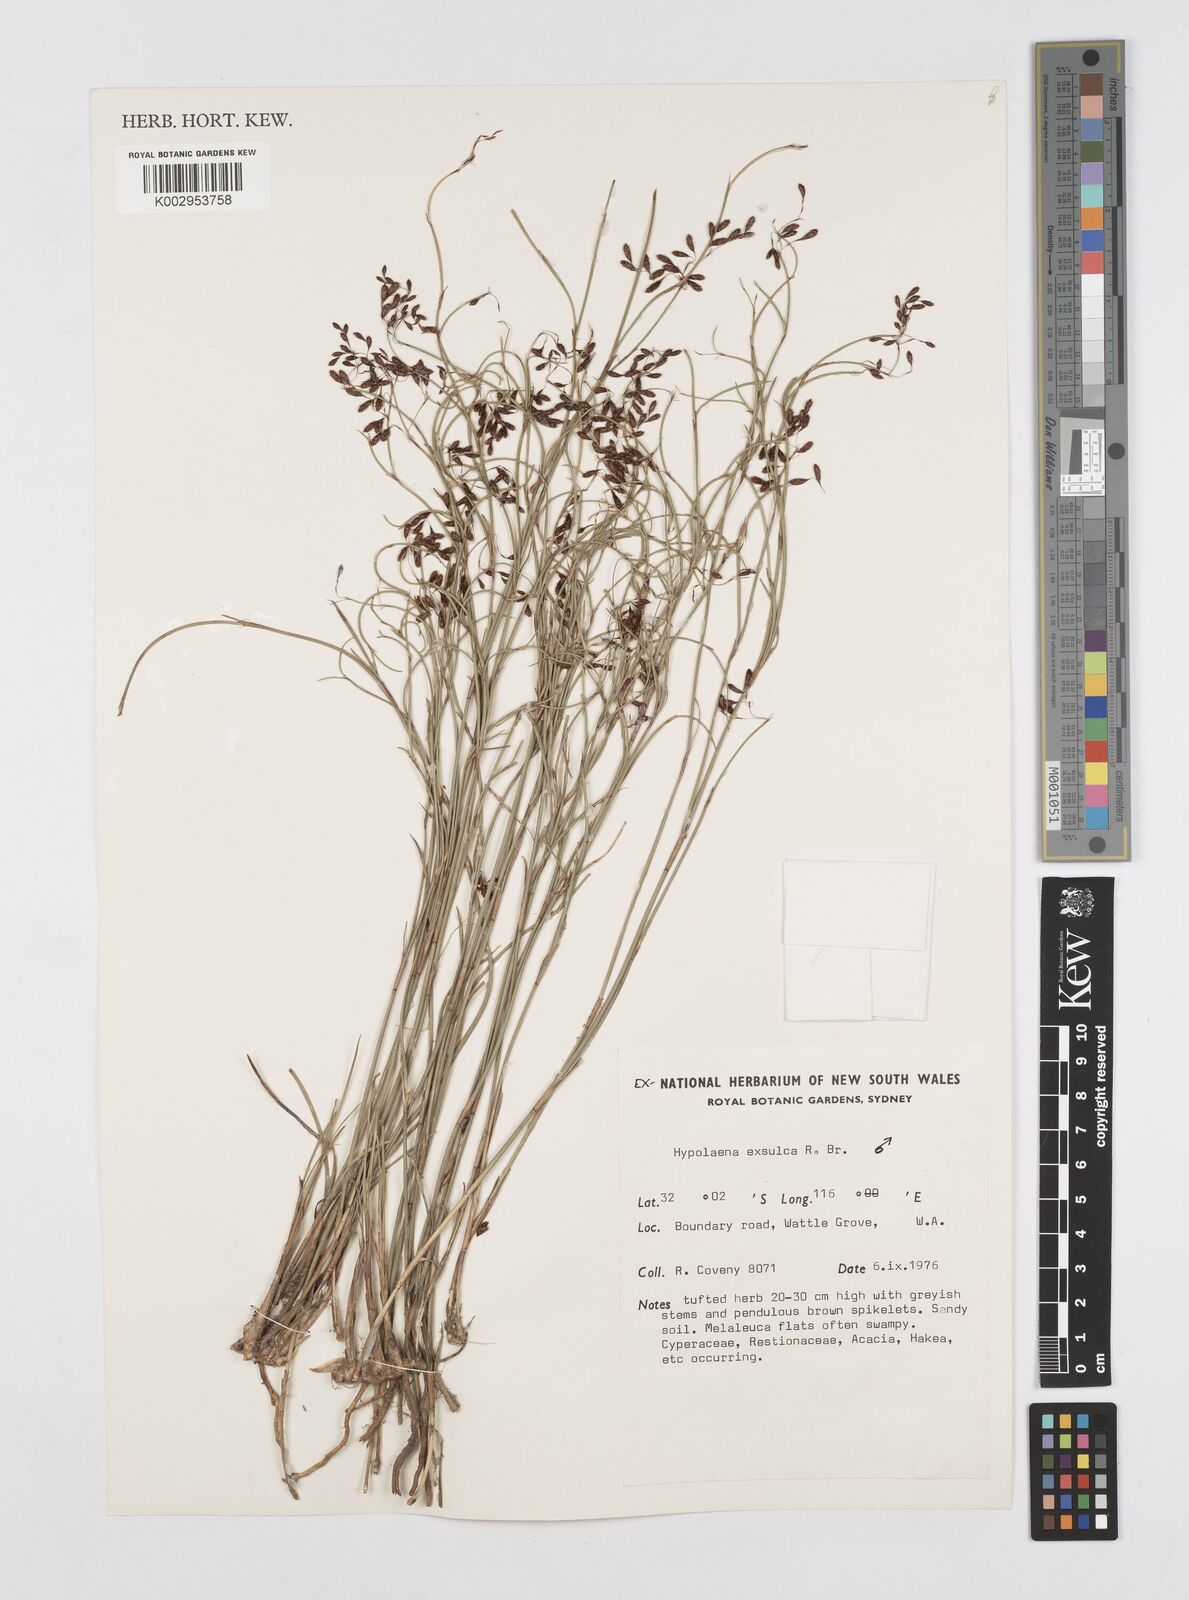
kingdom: Plantae
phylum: Tracheophyta
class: Liliopsida
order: Poales
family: Restionaceae
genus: Hypolaena
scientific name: Hypolaena exsulca
